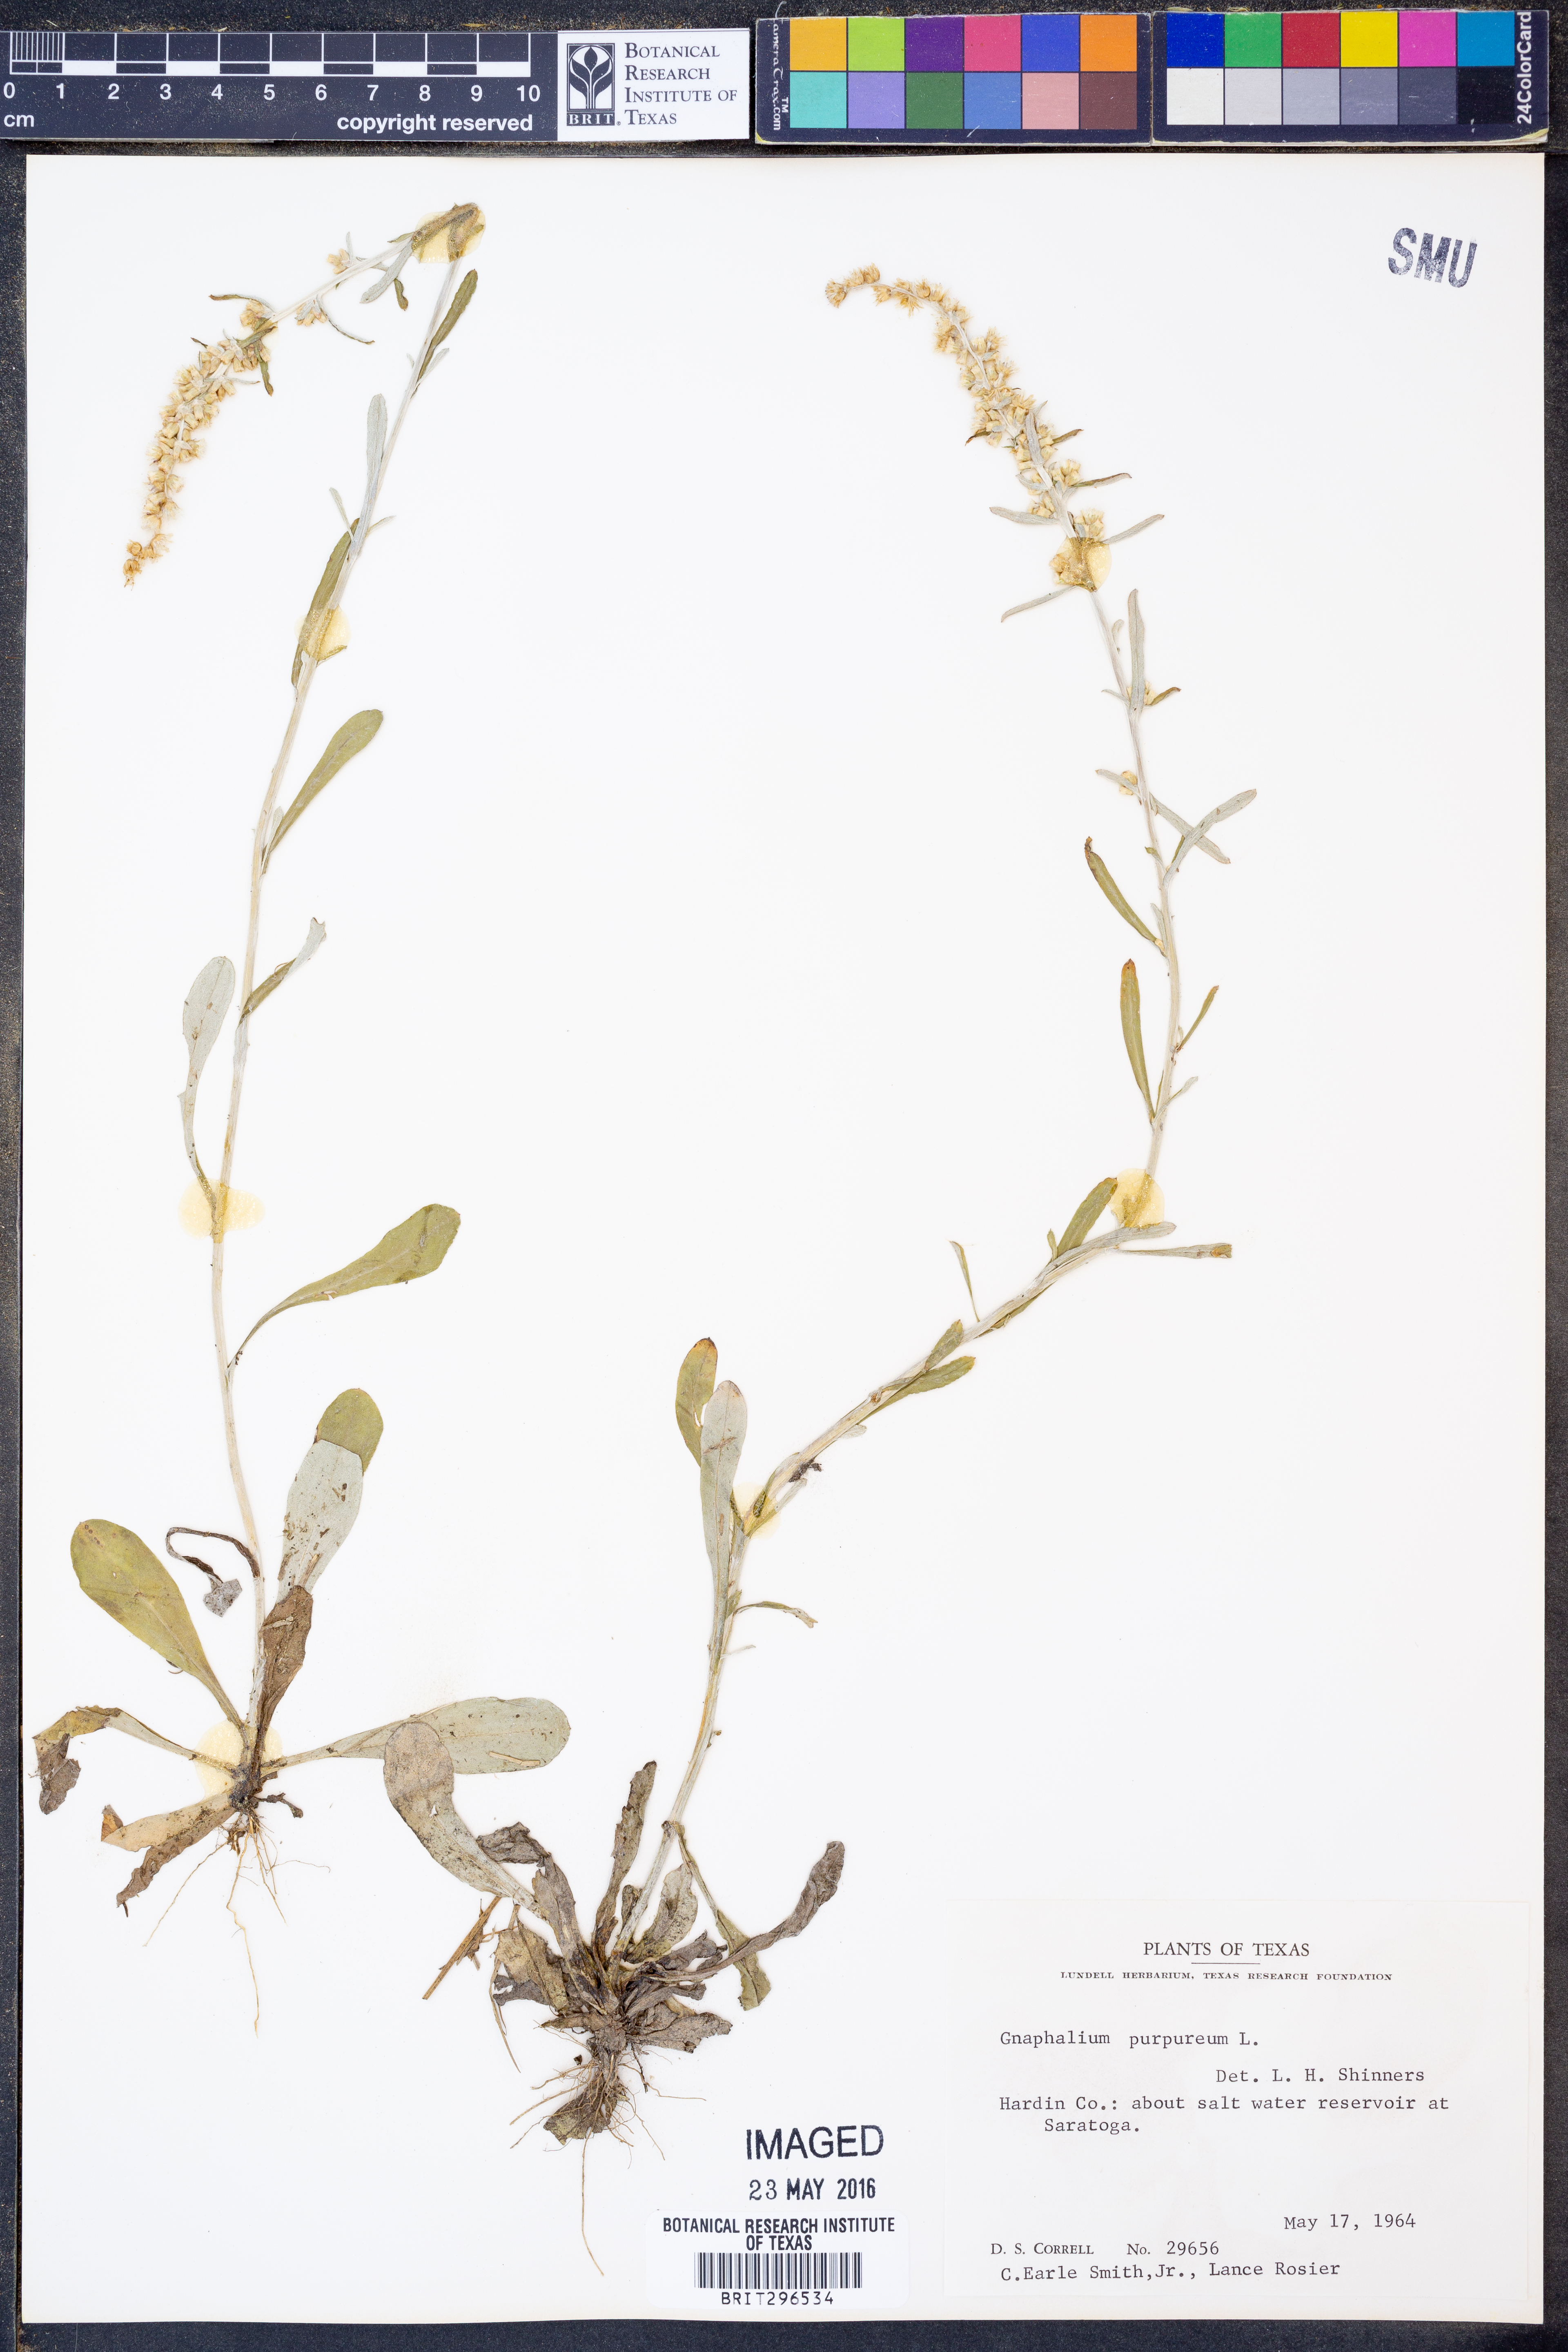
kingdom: Plantae
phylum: Tracheophyta
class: Magnoliopsida
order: Asterales
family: Asteraceae
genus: Gamochaeta
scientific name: Gamochaeta purpurea
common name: Purple cudweed
